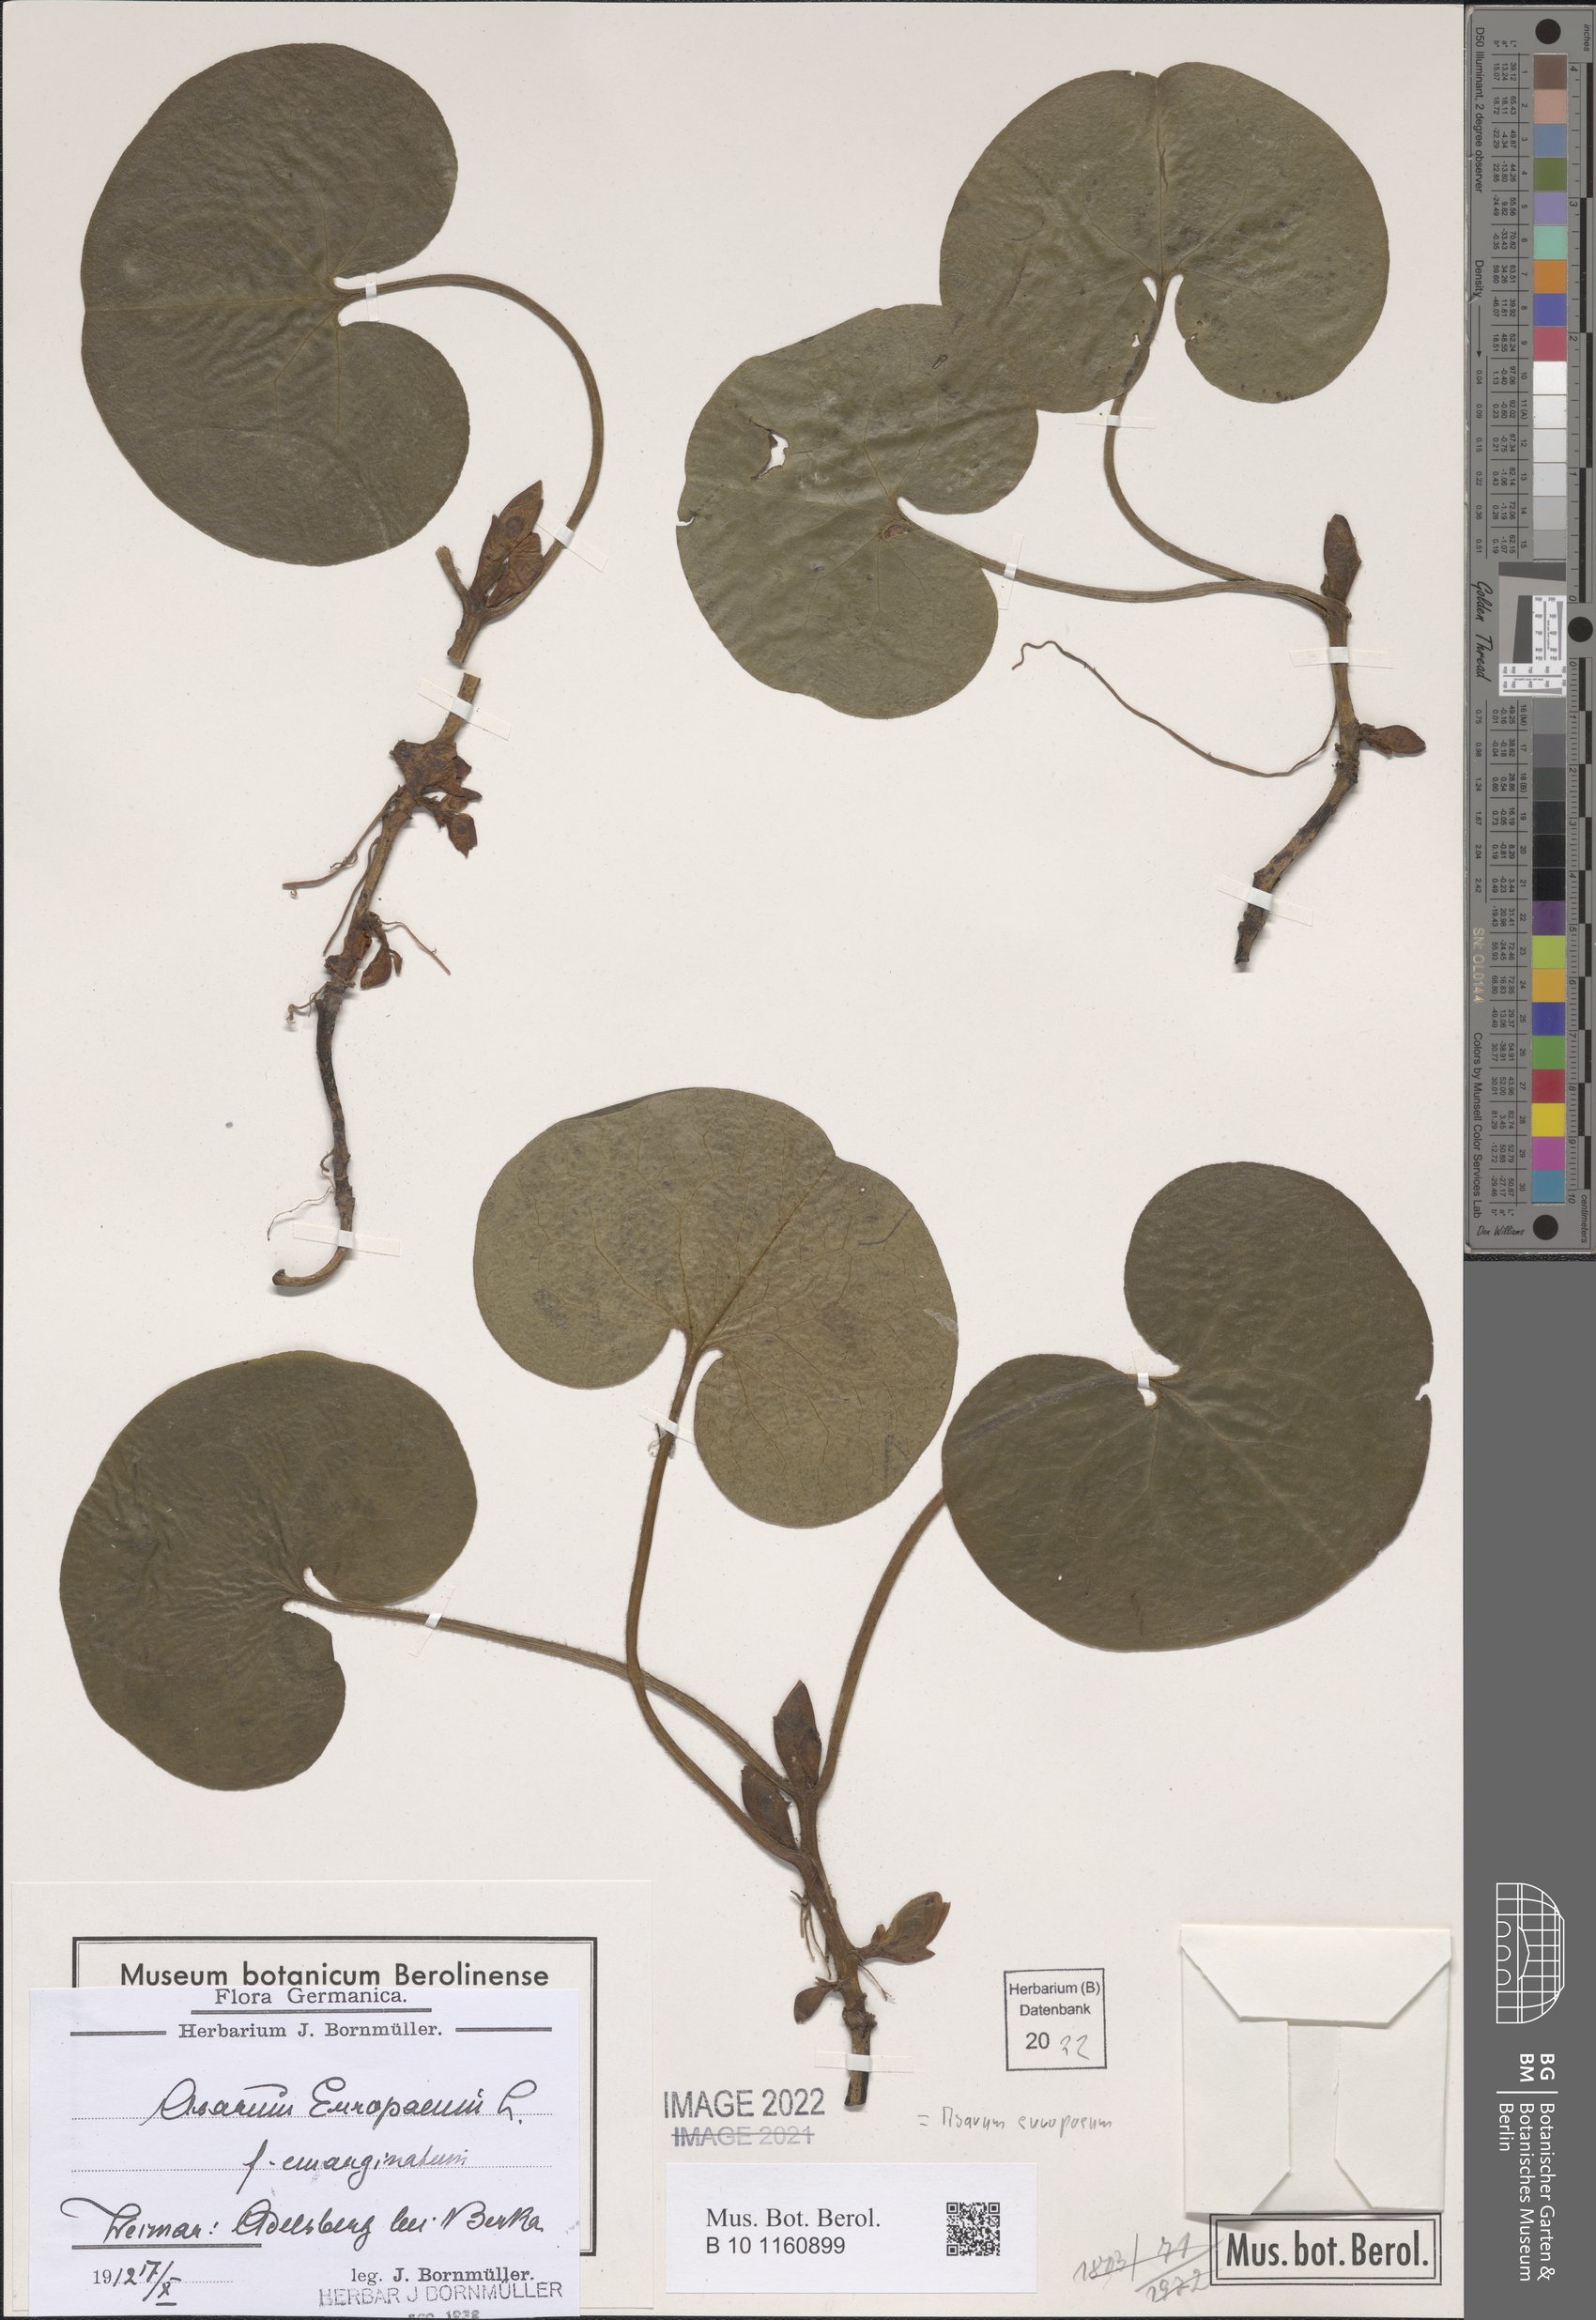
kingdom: Plantae
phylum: Tracheophyta
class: Magnoliopsida
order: Piperales
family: Aristolochiaceae
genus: Asarum
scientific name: Asarum europaeum
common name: Asarabacca
